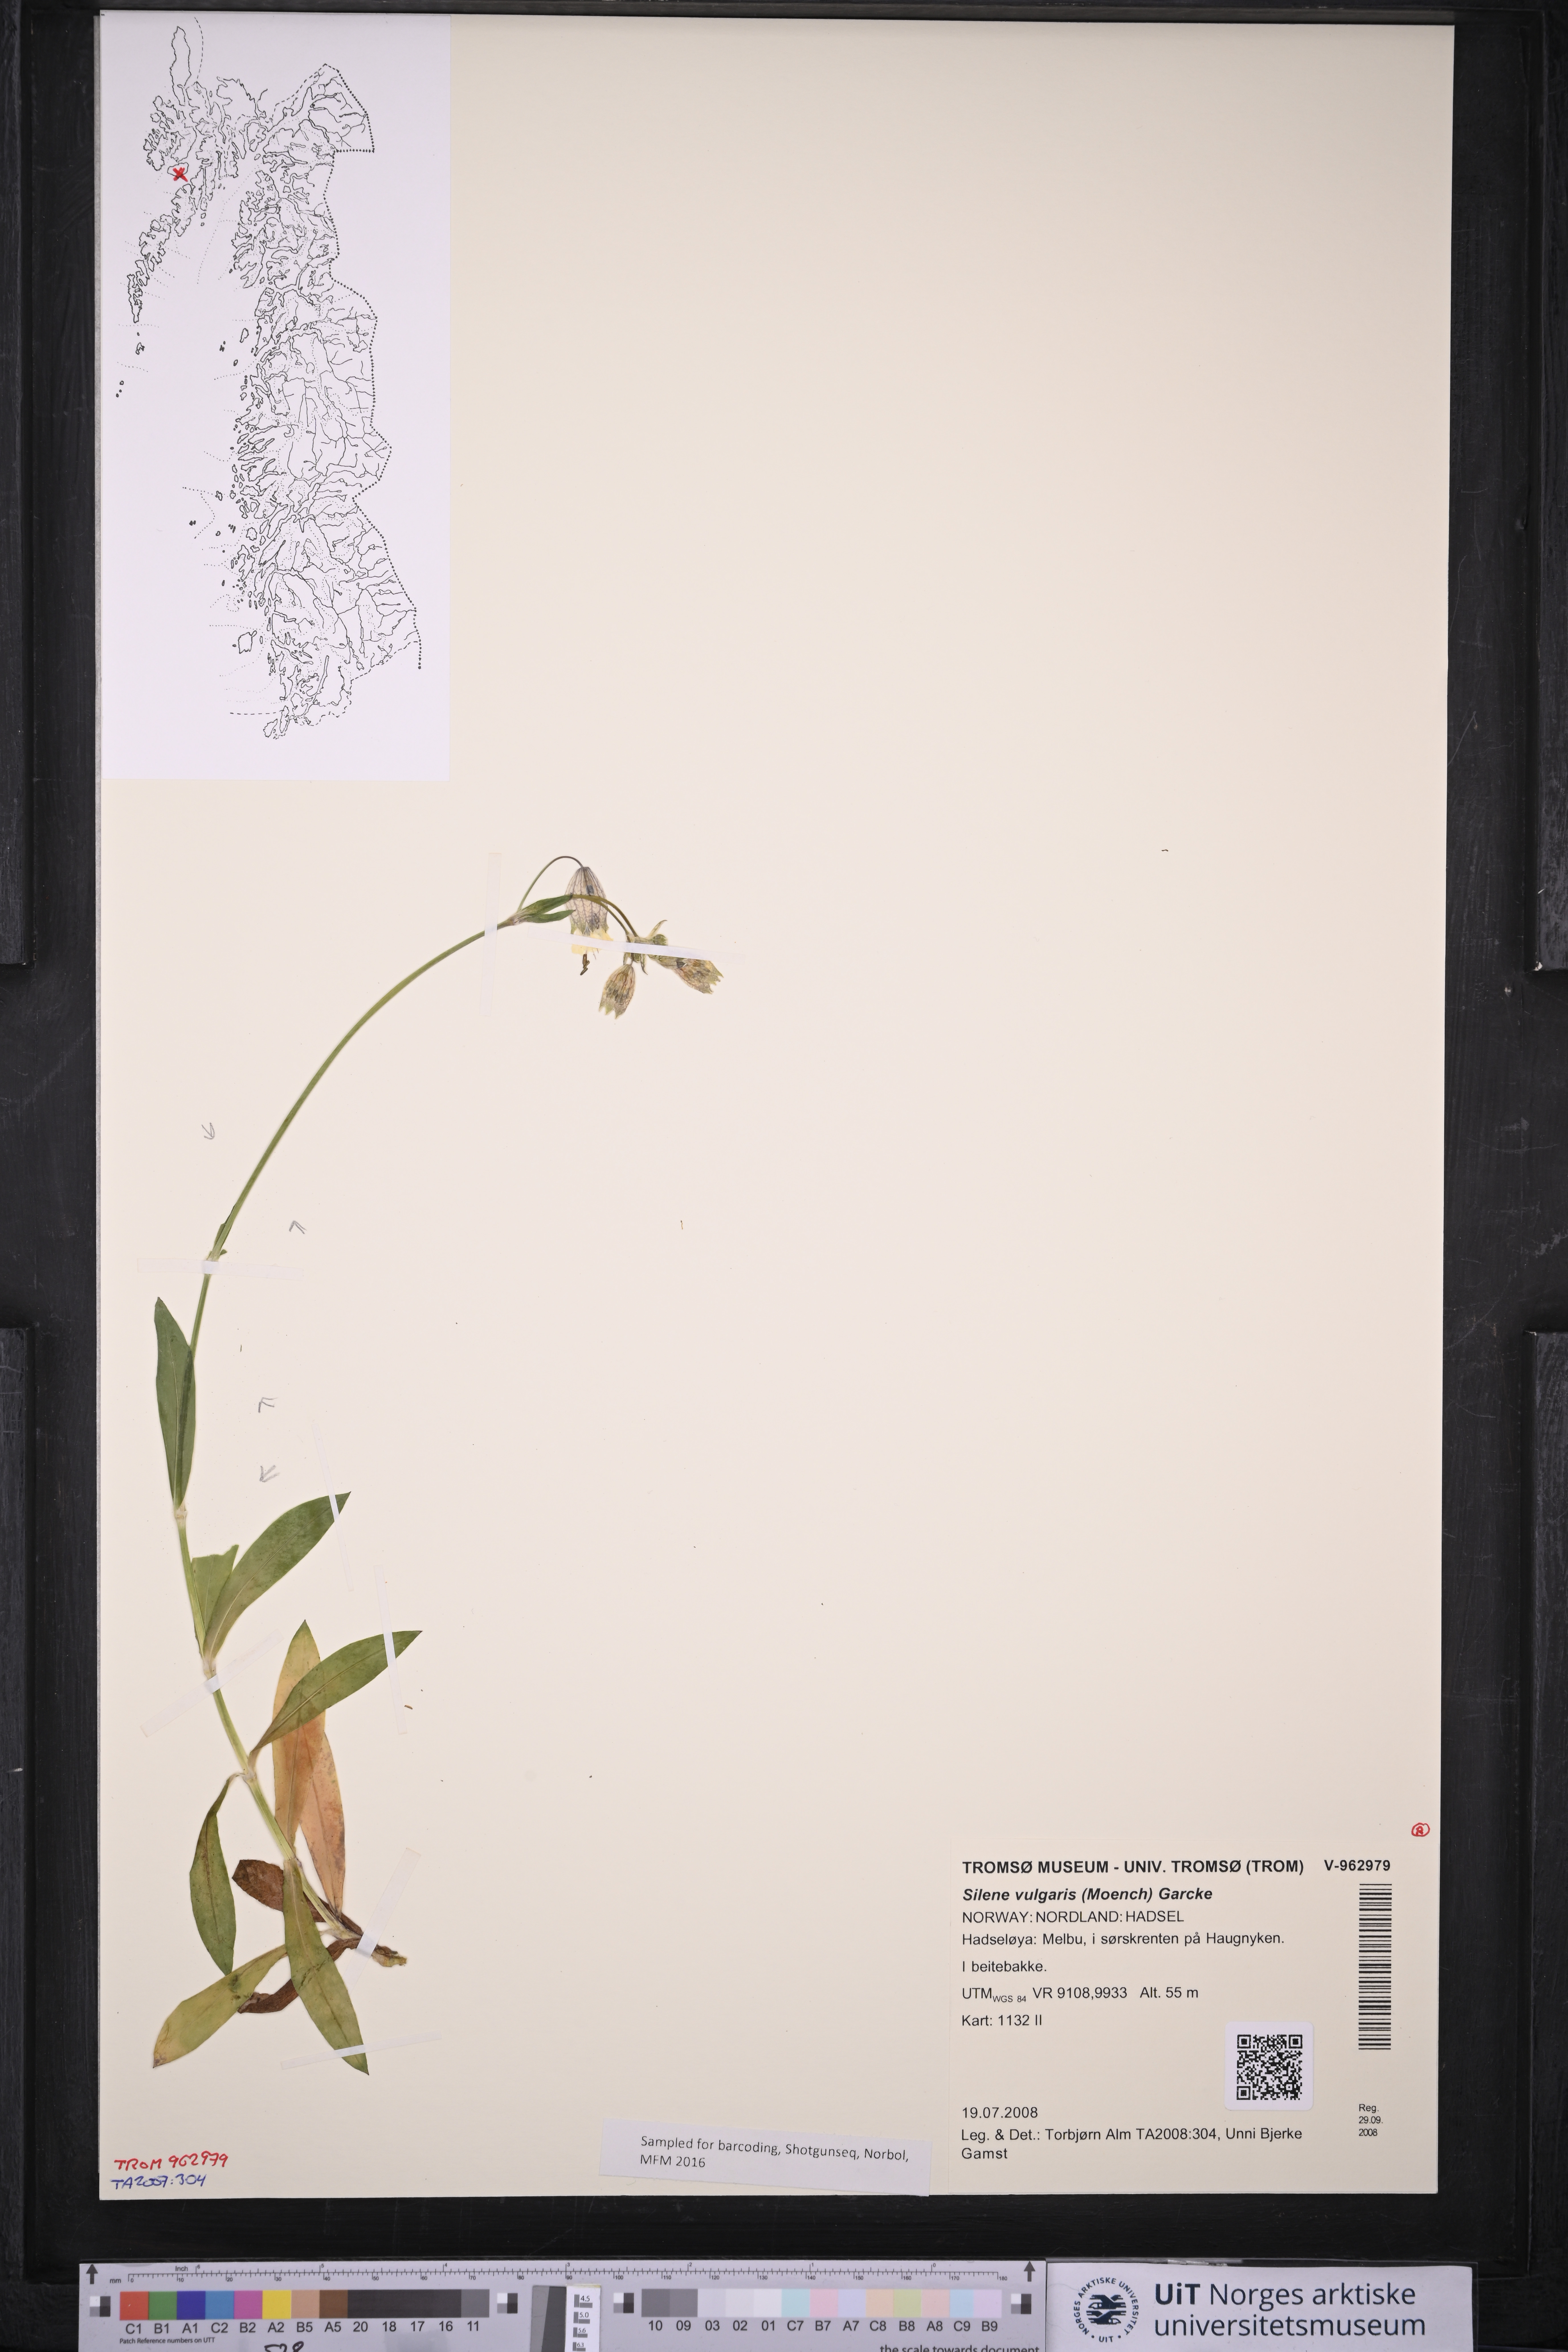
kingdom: Plantae
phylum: Tracheophyta
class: Magnoliopsida
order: Caryophyllales
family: Caryophyllaceae
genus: Silene
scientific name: Silene vulgaris
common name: Bladder campion
